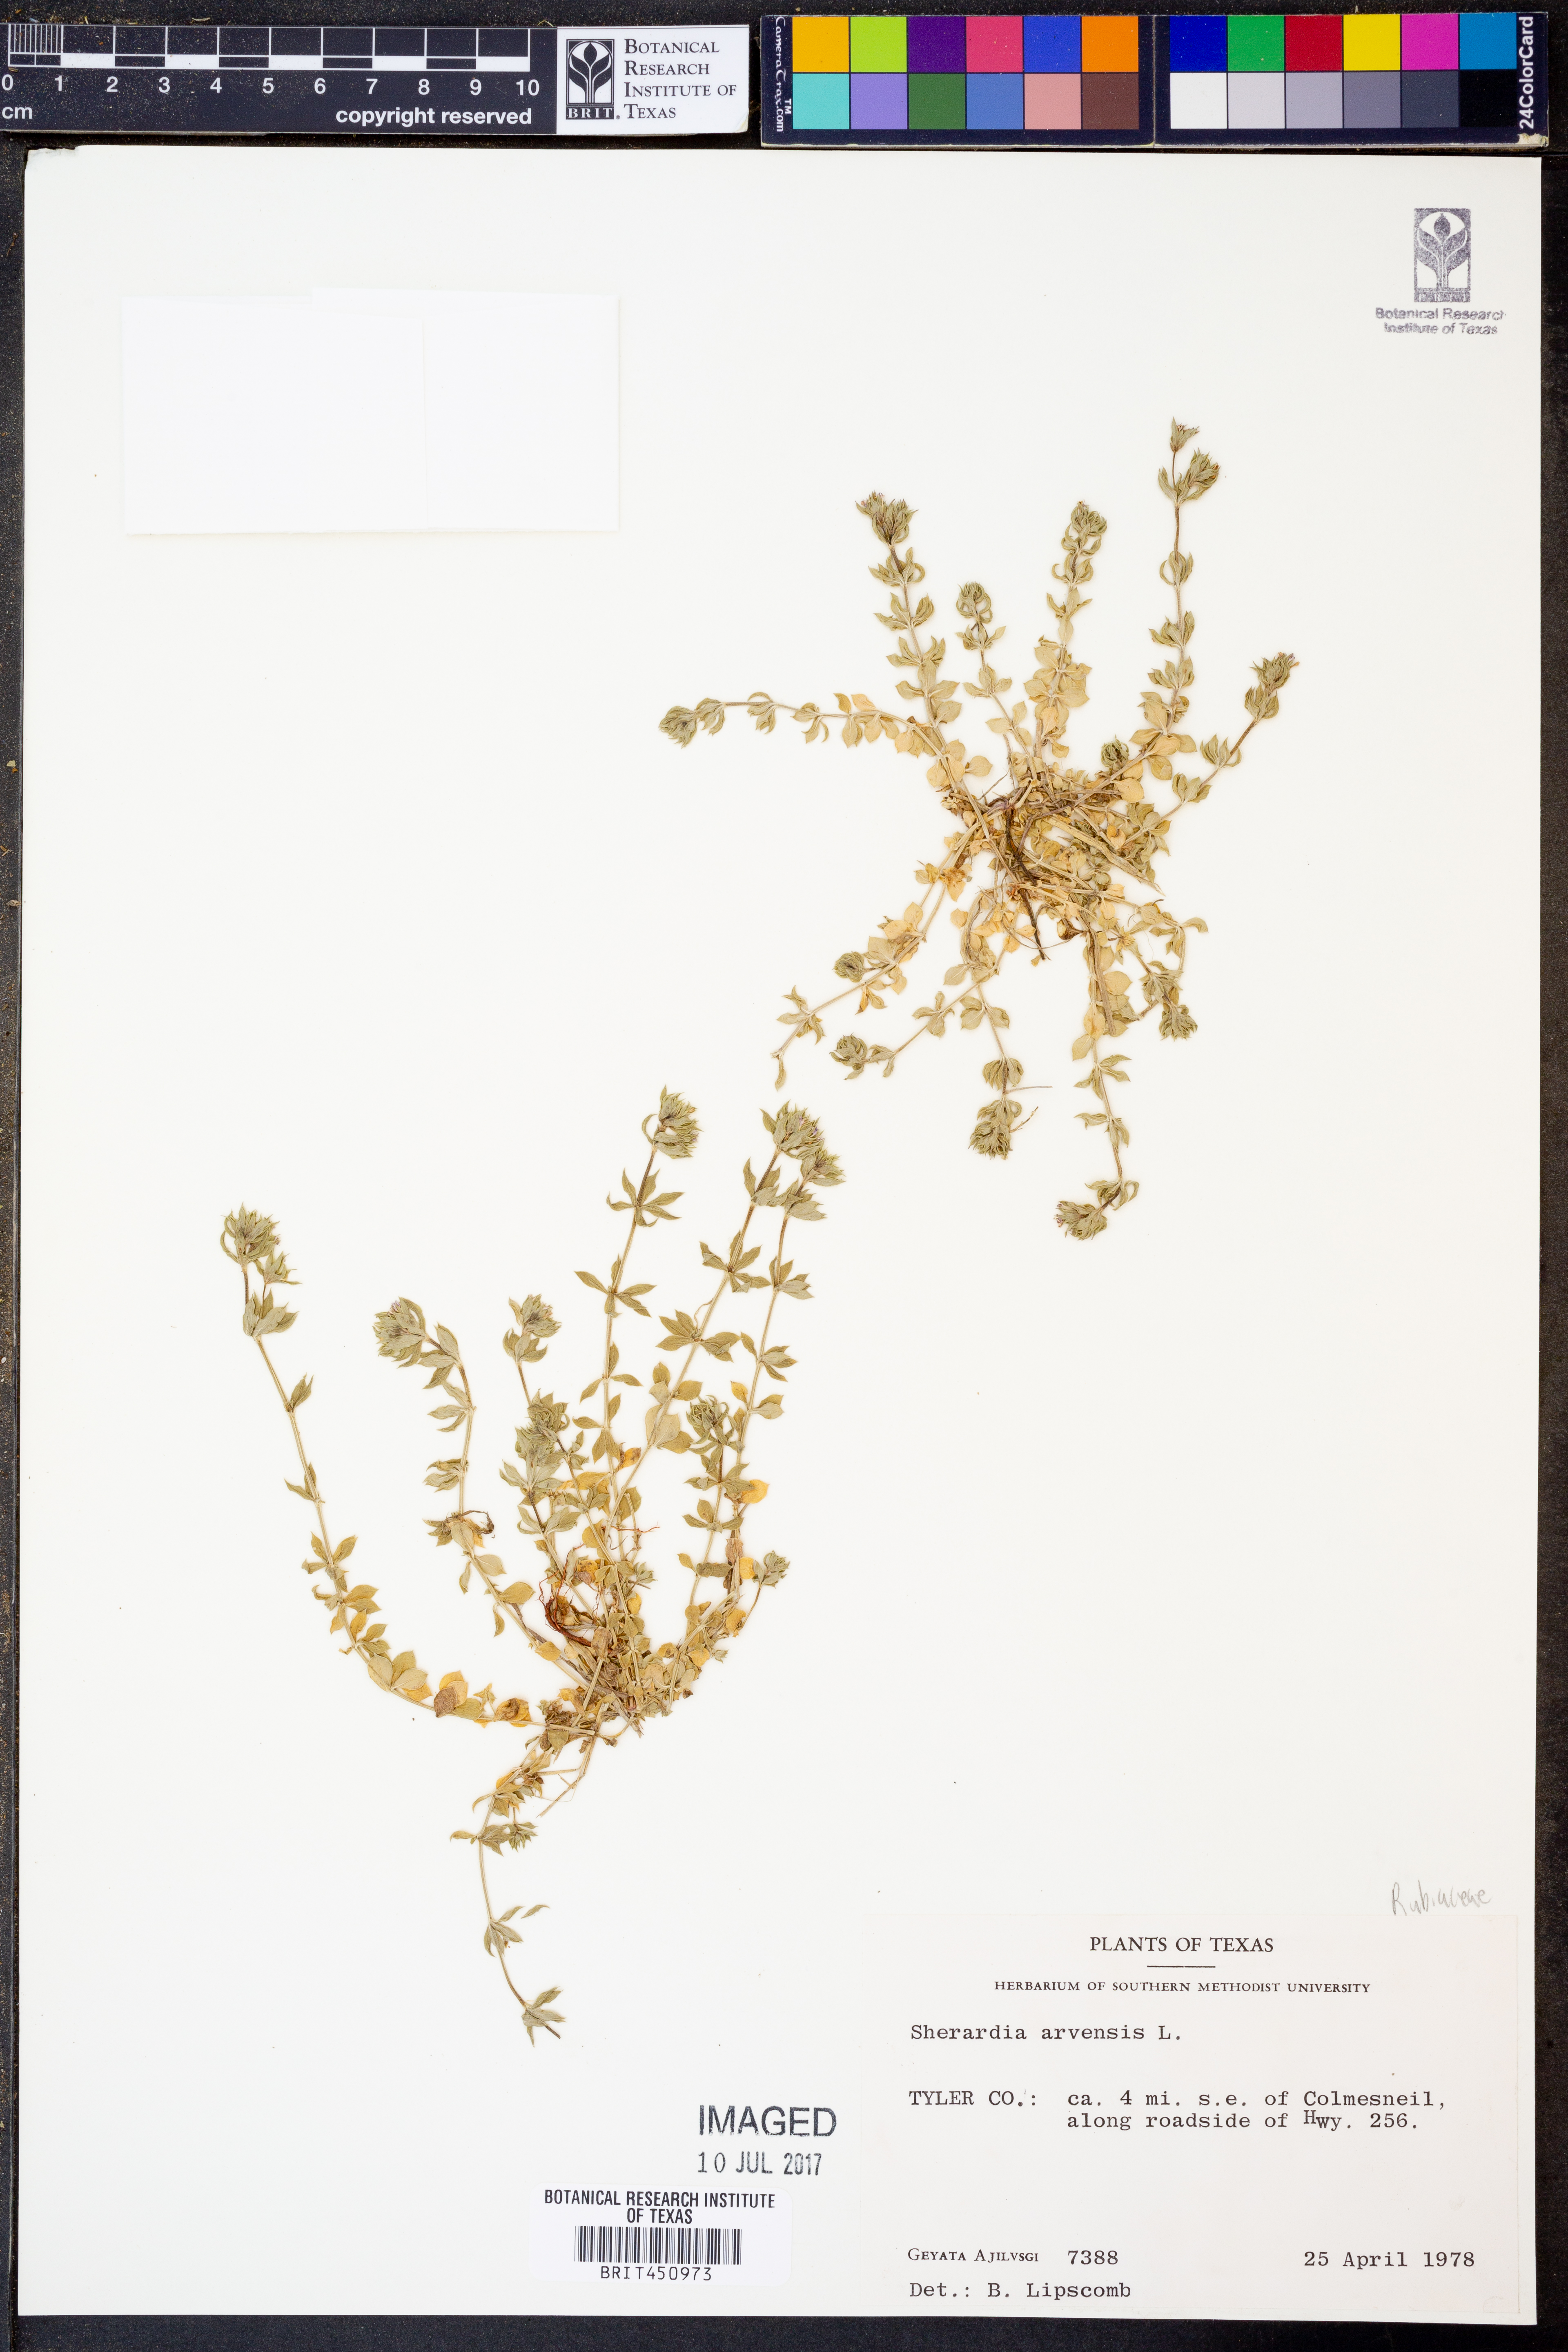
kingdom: Plantae
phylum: Tracheophyta
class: Magnoliopsida
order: Gentianales
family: Rubiaceae
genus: Sherardia
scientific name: Sherardia arvensis
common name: Field madder
